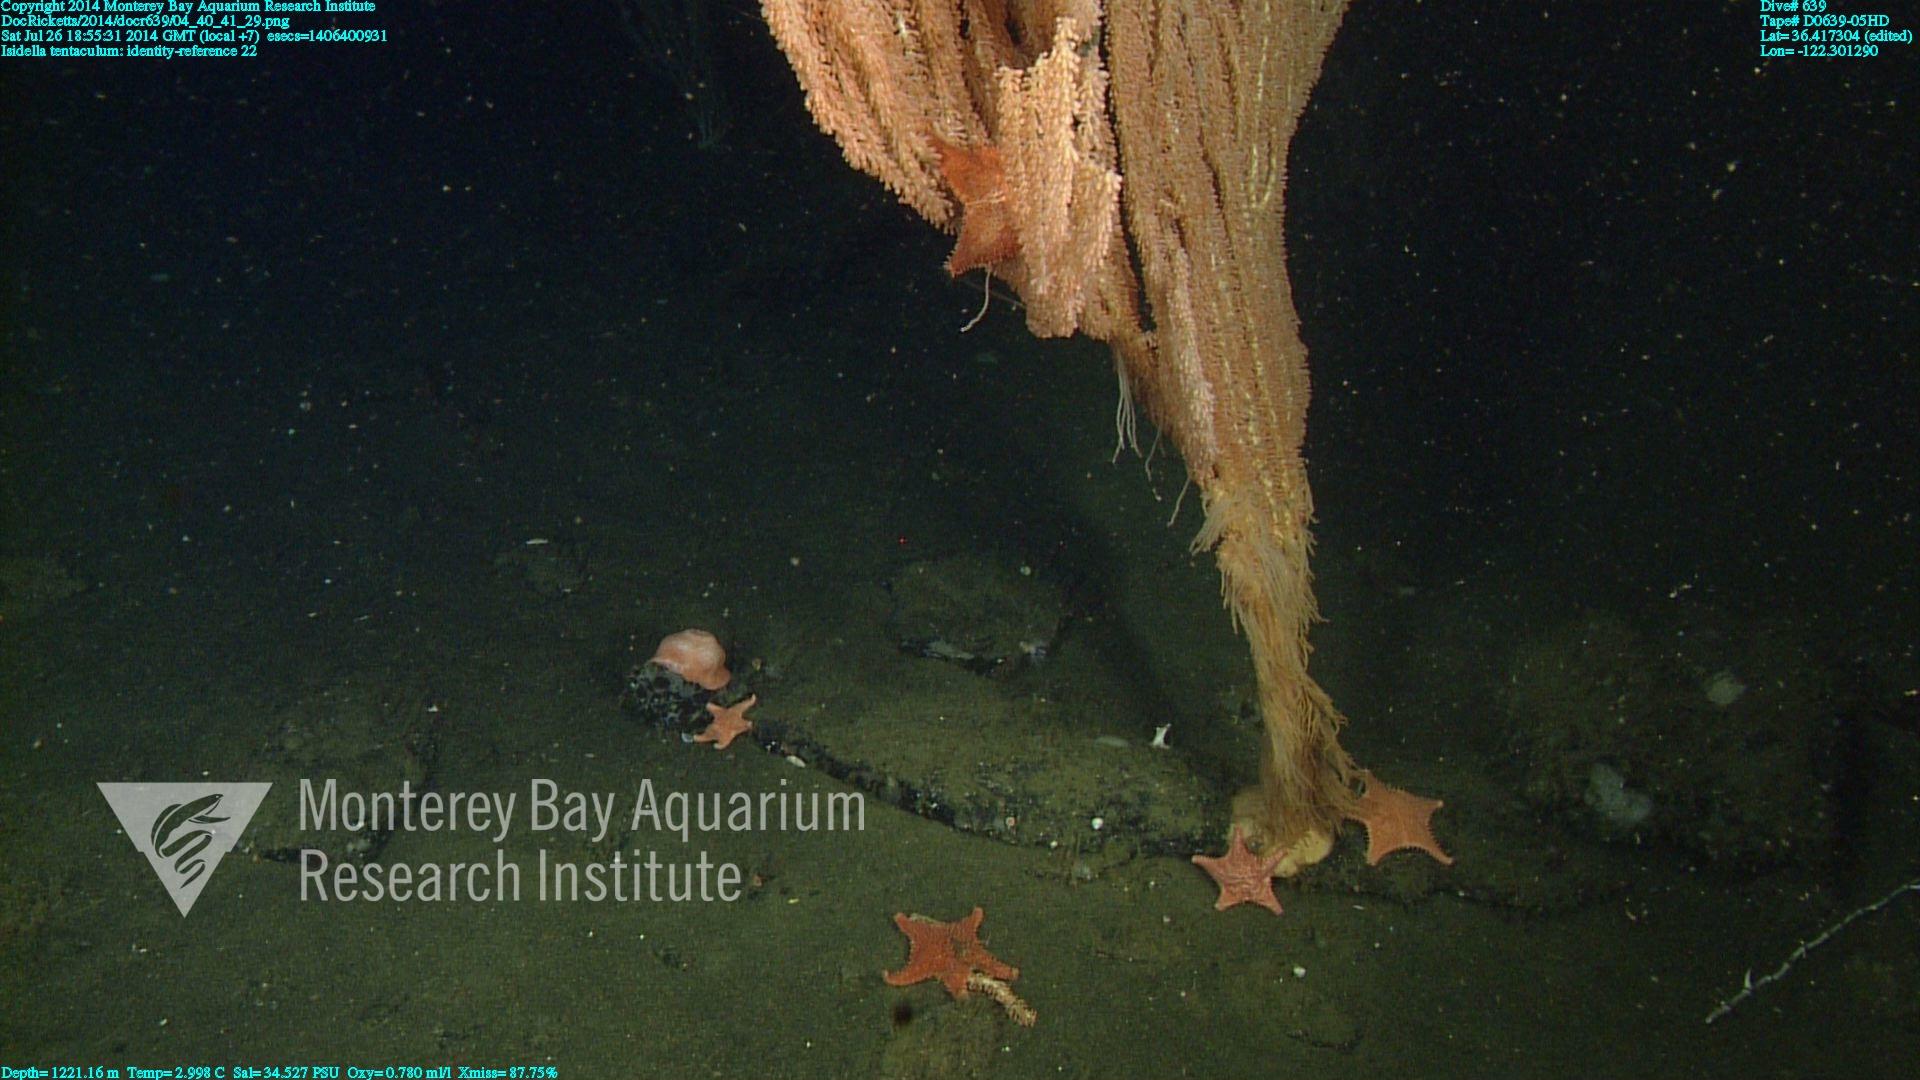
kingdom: Animalia
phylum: Cnidaria
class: Anthozoa
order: Scleralcyonacea
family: Keratoisididae
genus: Isidella
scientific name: Isidella tentaculum
